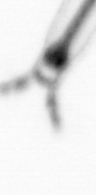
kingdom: Animalia
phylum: Arthropoda
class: Copepoda
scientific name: Copepoda
